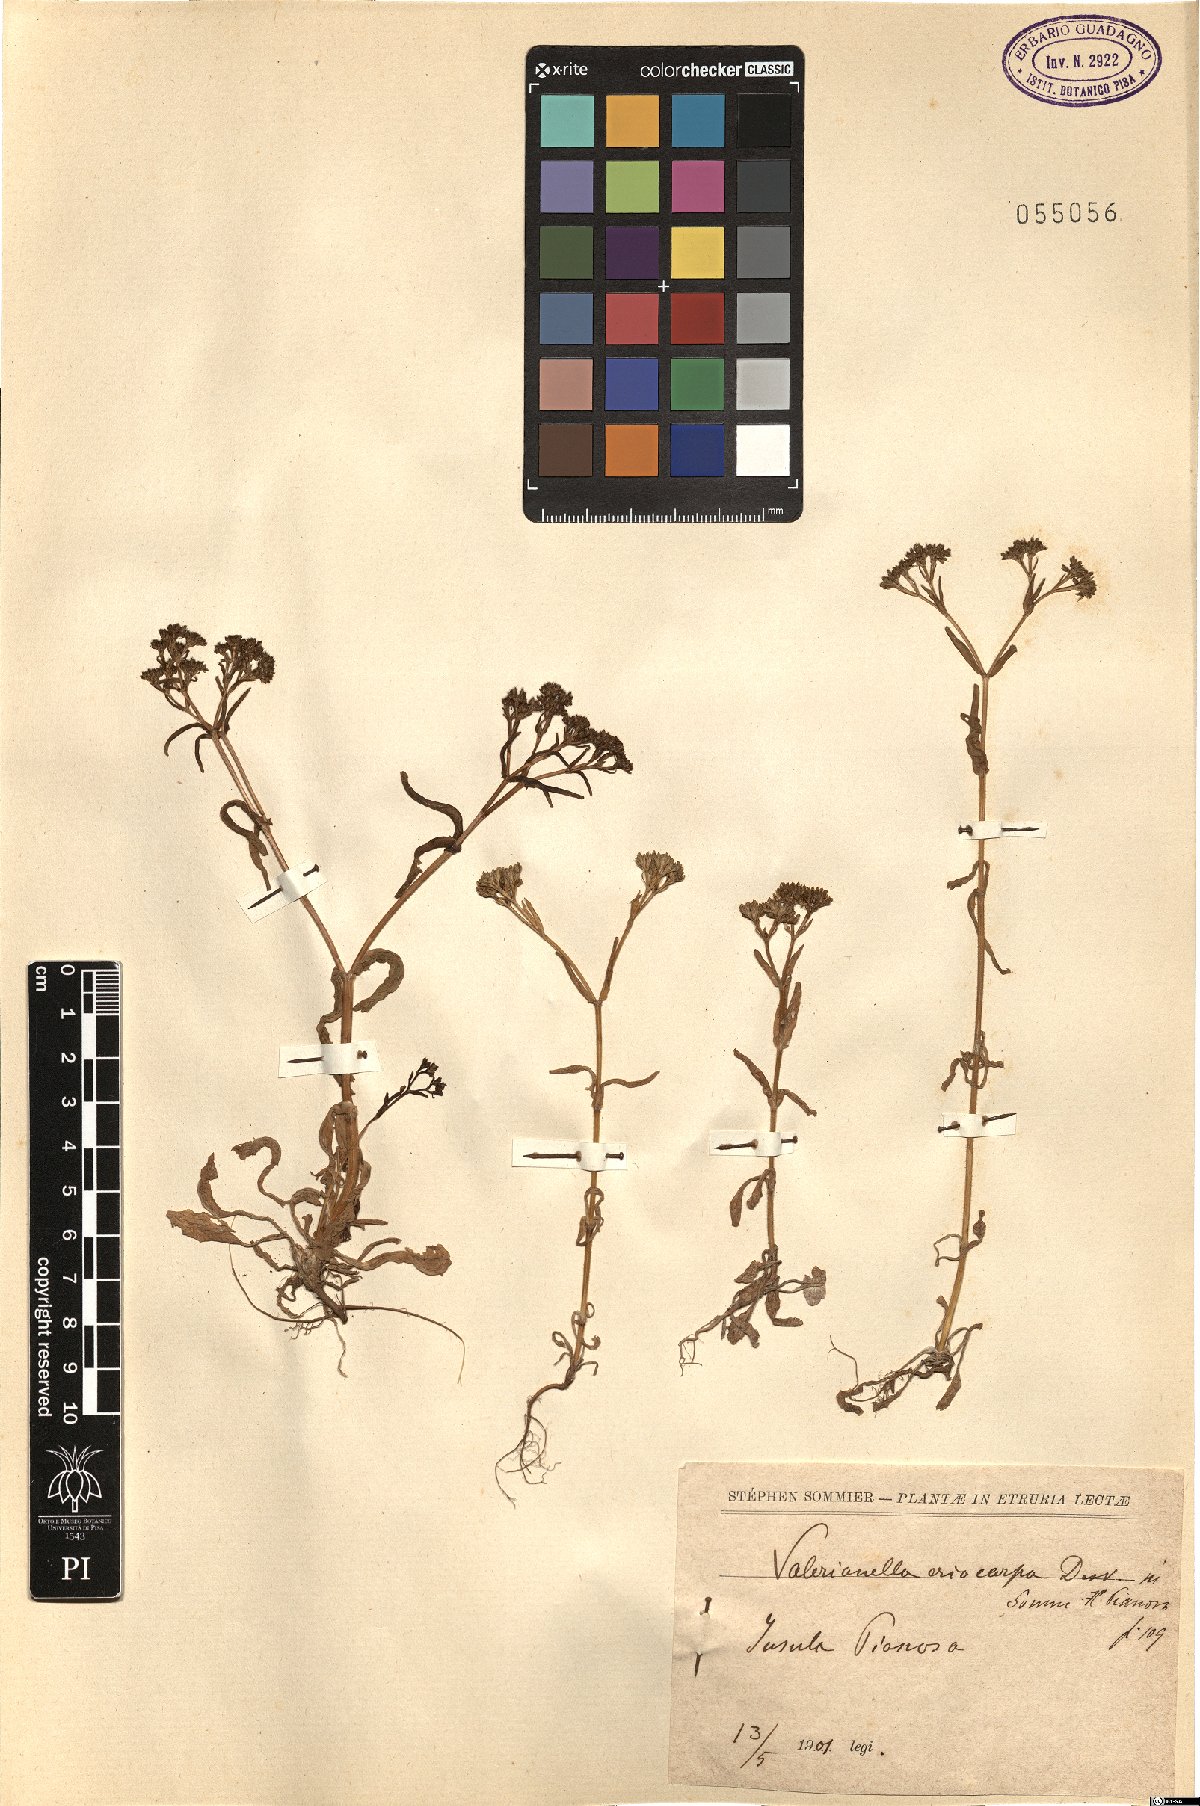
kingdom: Plantae
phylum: Tracheophyta
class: Magnoliopsida
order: Dipsacales
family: Caprifoliaceae
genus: Valerianella
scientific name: Valerianella eriocarpa
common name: Hairy-fruited cornsalad
